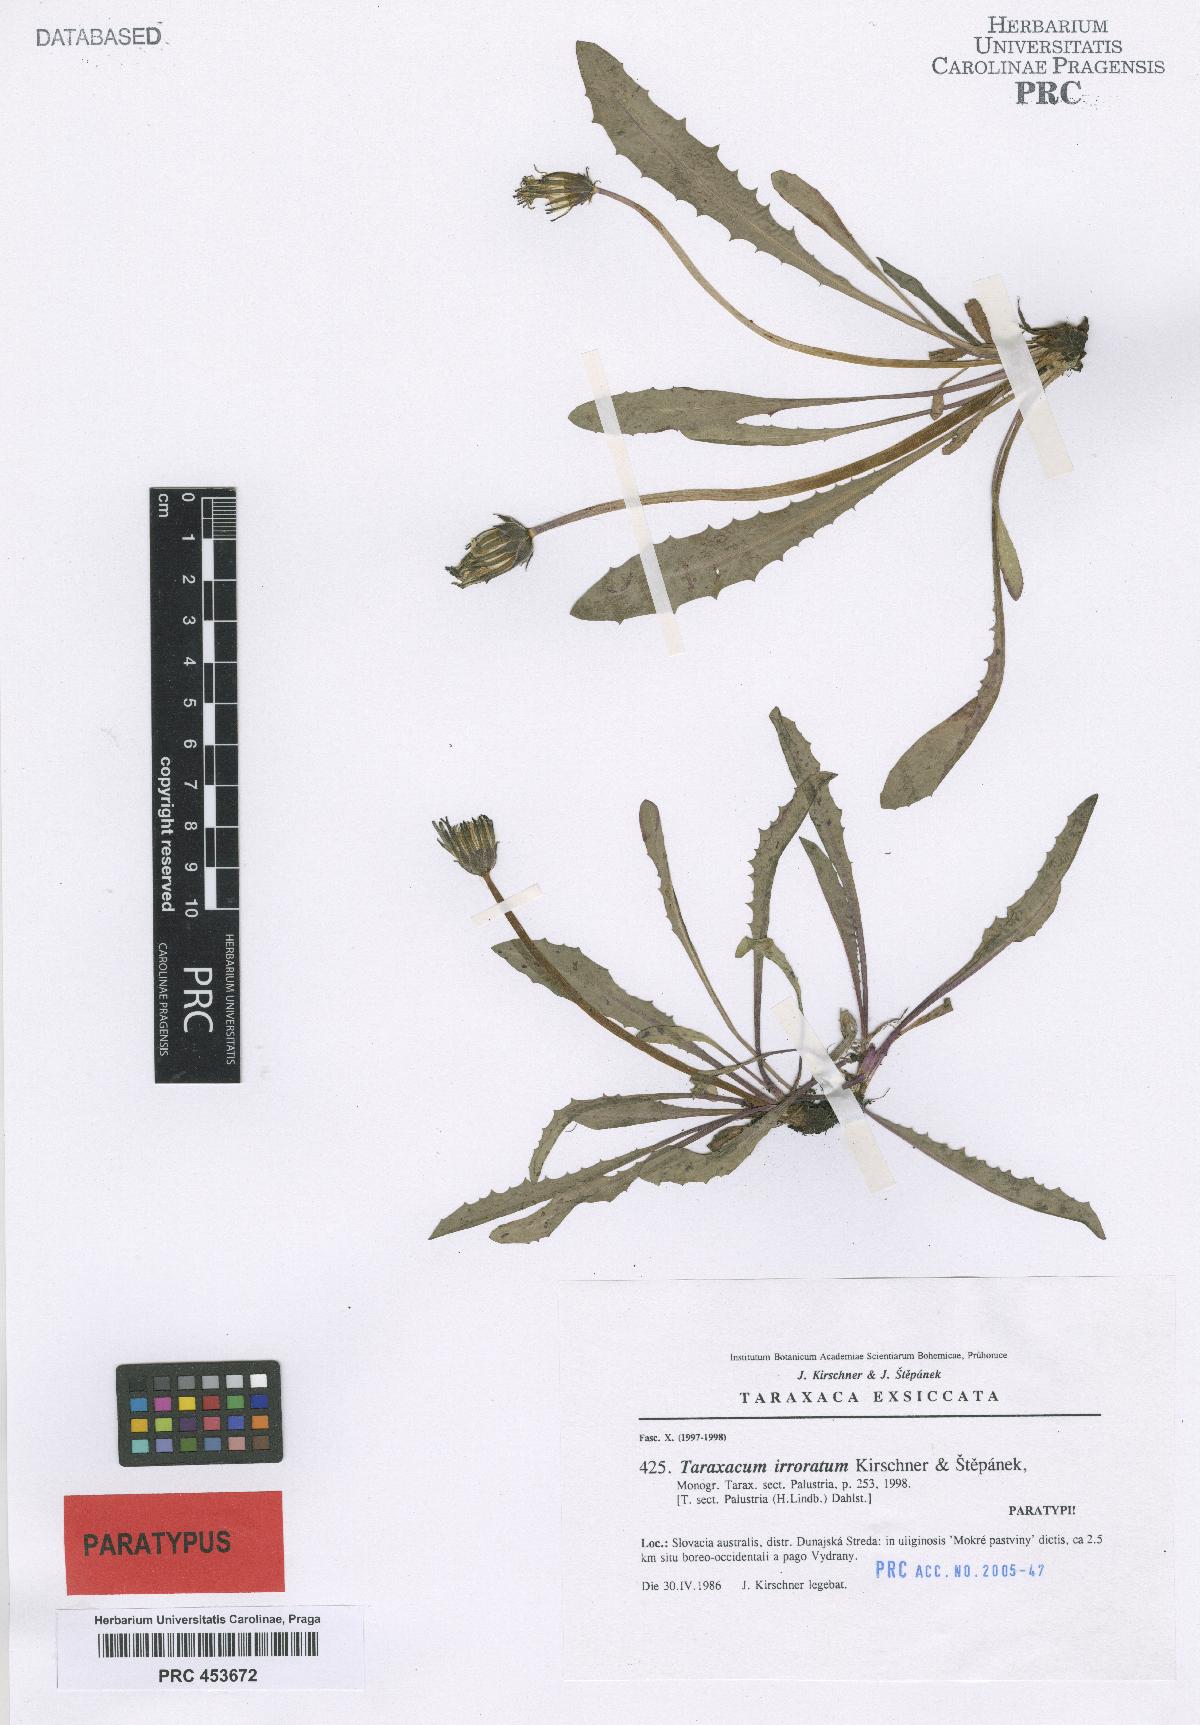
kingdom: Plantae
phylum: Tracheophyta
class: Magnoliopsida
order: Asterales
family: Asteraceae
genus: Taraxacum
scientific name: Taraxacum irroratum
